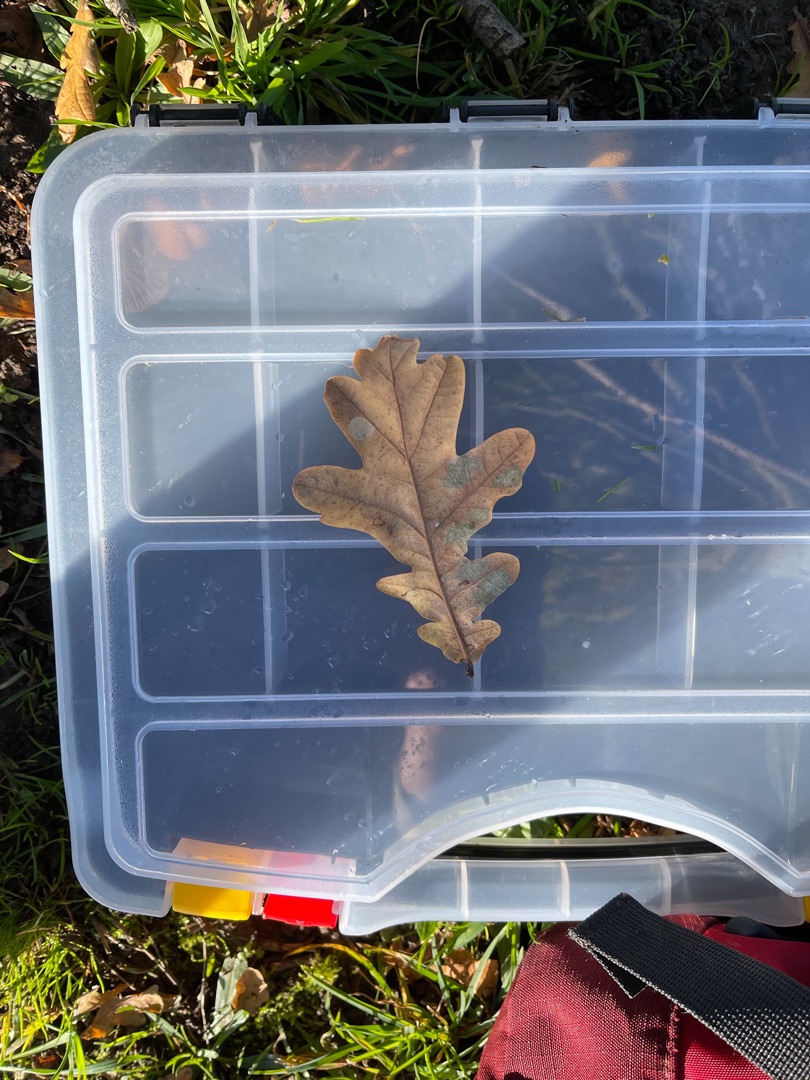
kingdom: Plantae
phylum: Tracheophyta
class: Magnoliopsida
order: Fagales
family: Fagaceae
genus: Quercus
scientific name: Quercus robur
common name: Stilk-eg/almindelig eg
